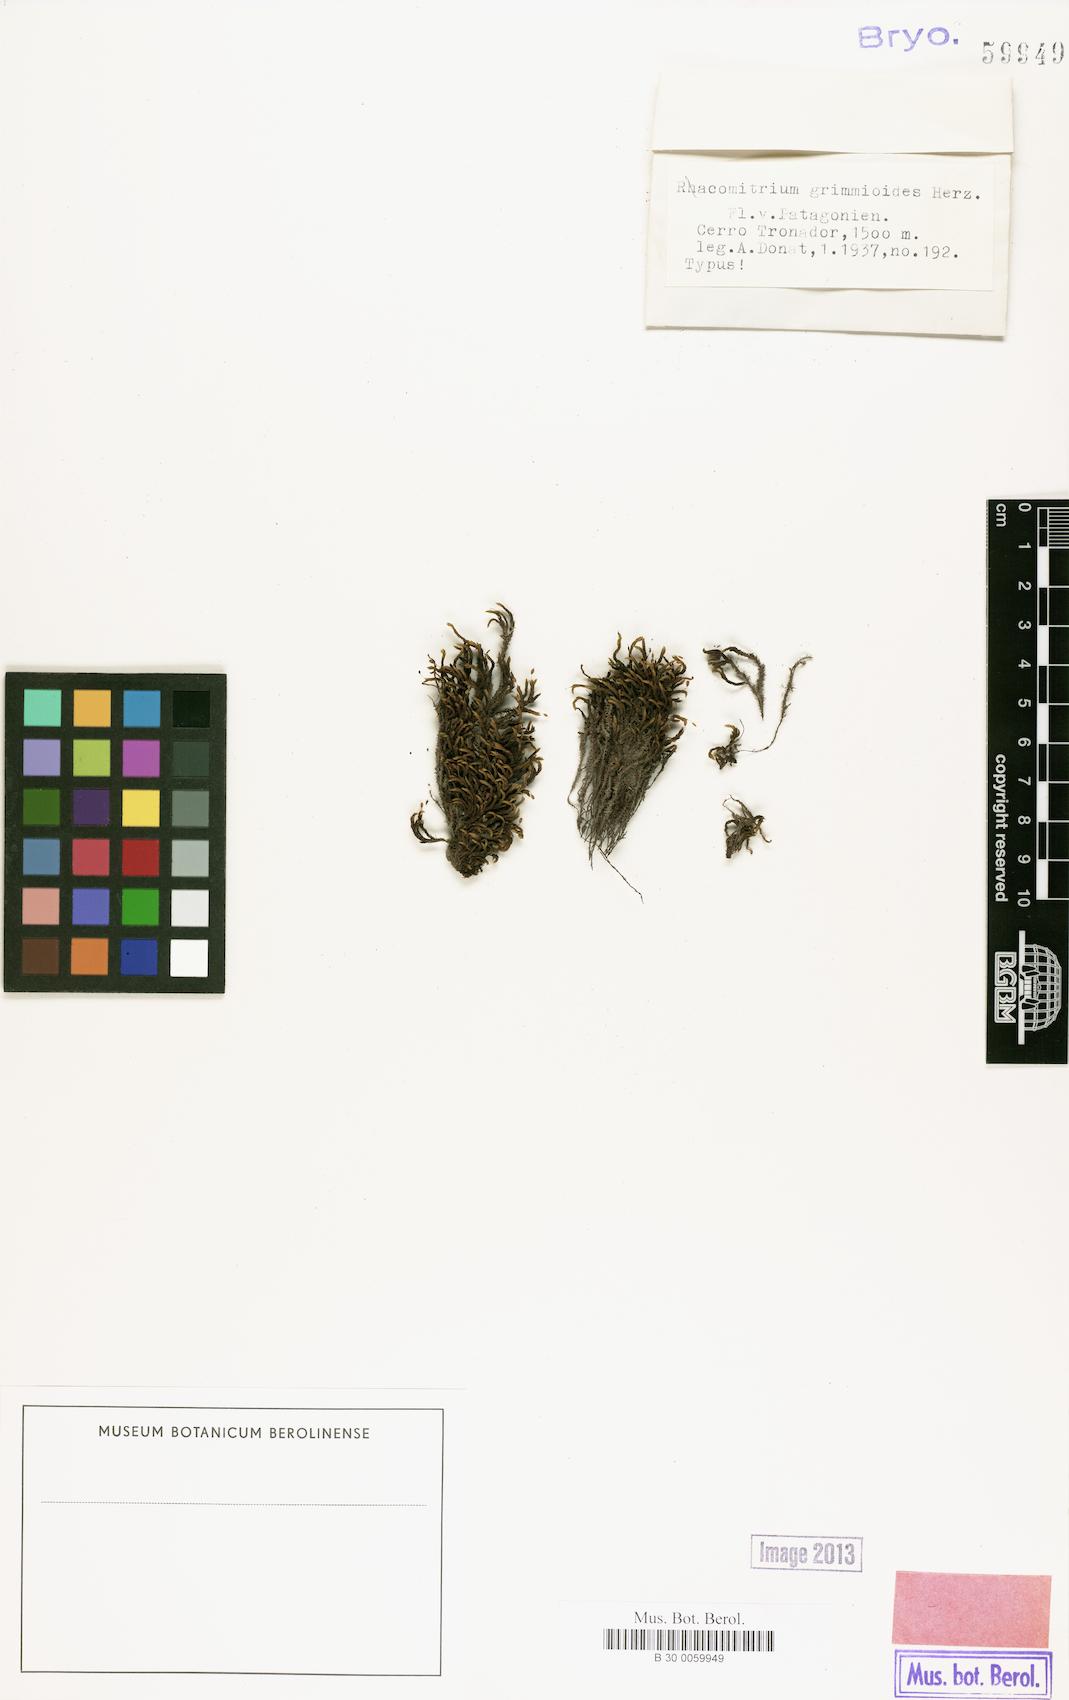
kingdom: Plantae
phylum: Bryophyta
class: Bryopsida
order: Grimmiales
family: Grimmiaceae
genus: Bucklandiella
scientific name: Bucklandiella grimmioides
